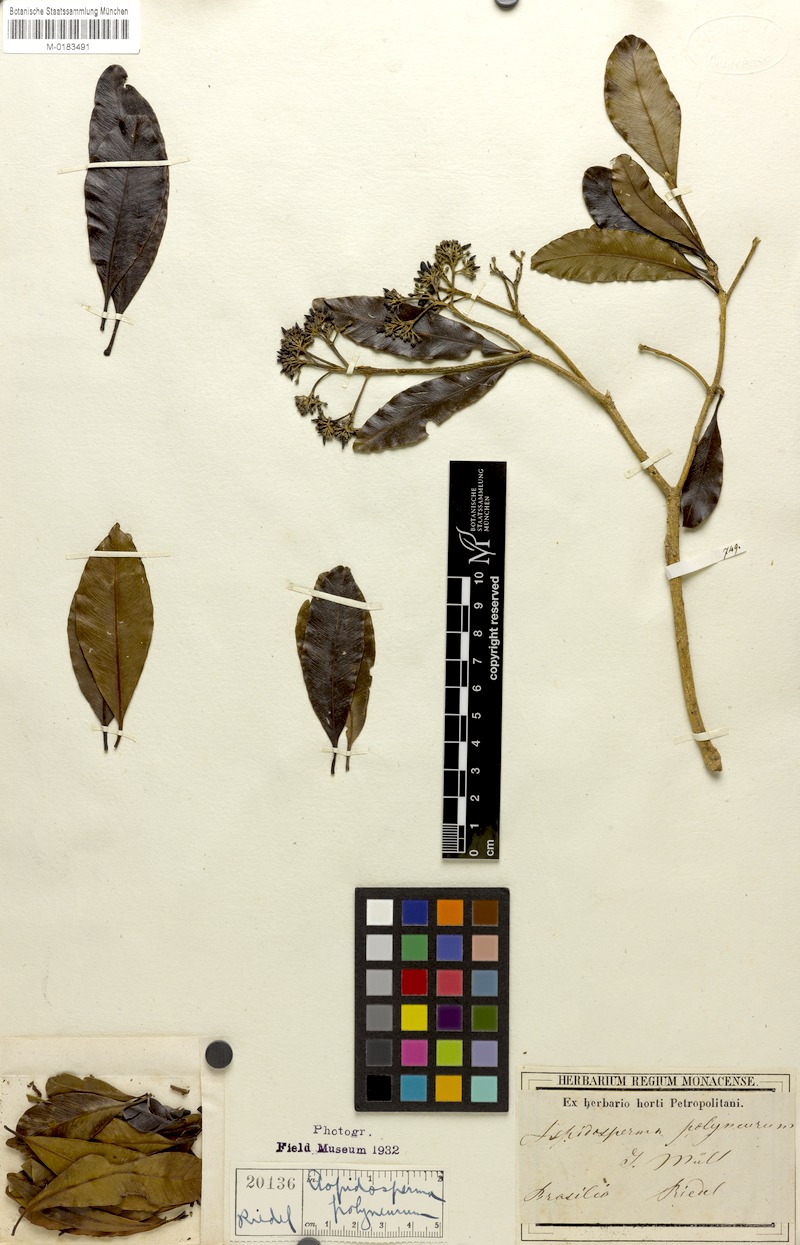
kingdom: Plantae
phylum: Tracheophyta
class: Magnoliopsida
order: Gentianales
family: Apocynaceae
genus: Aspidosperma
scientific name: Aspidosperma polyneuron
